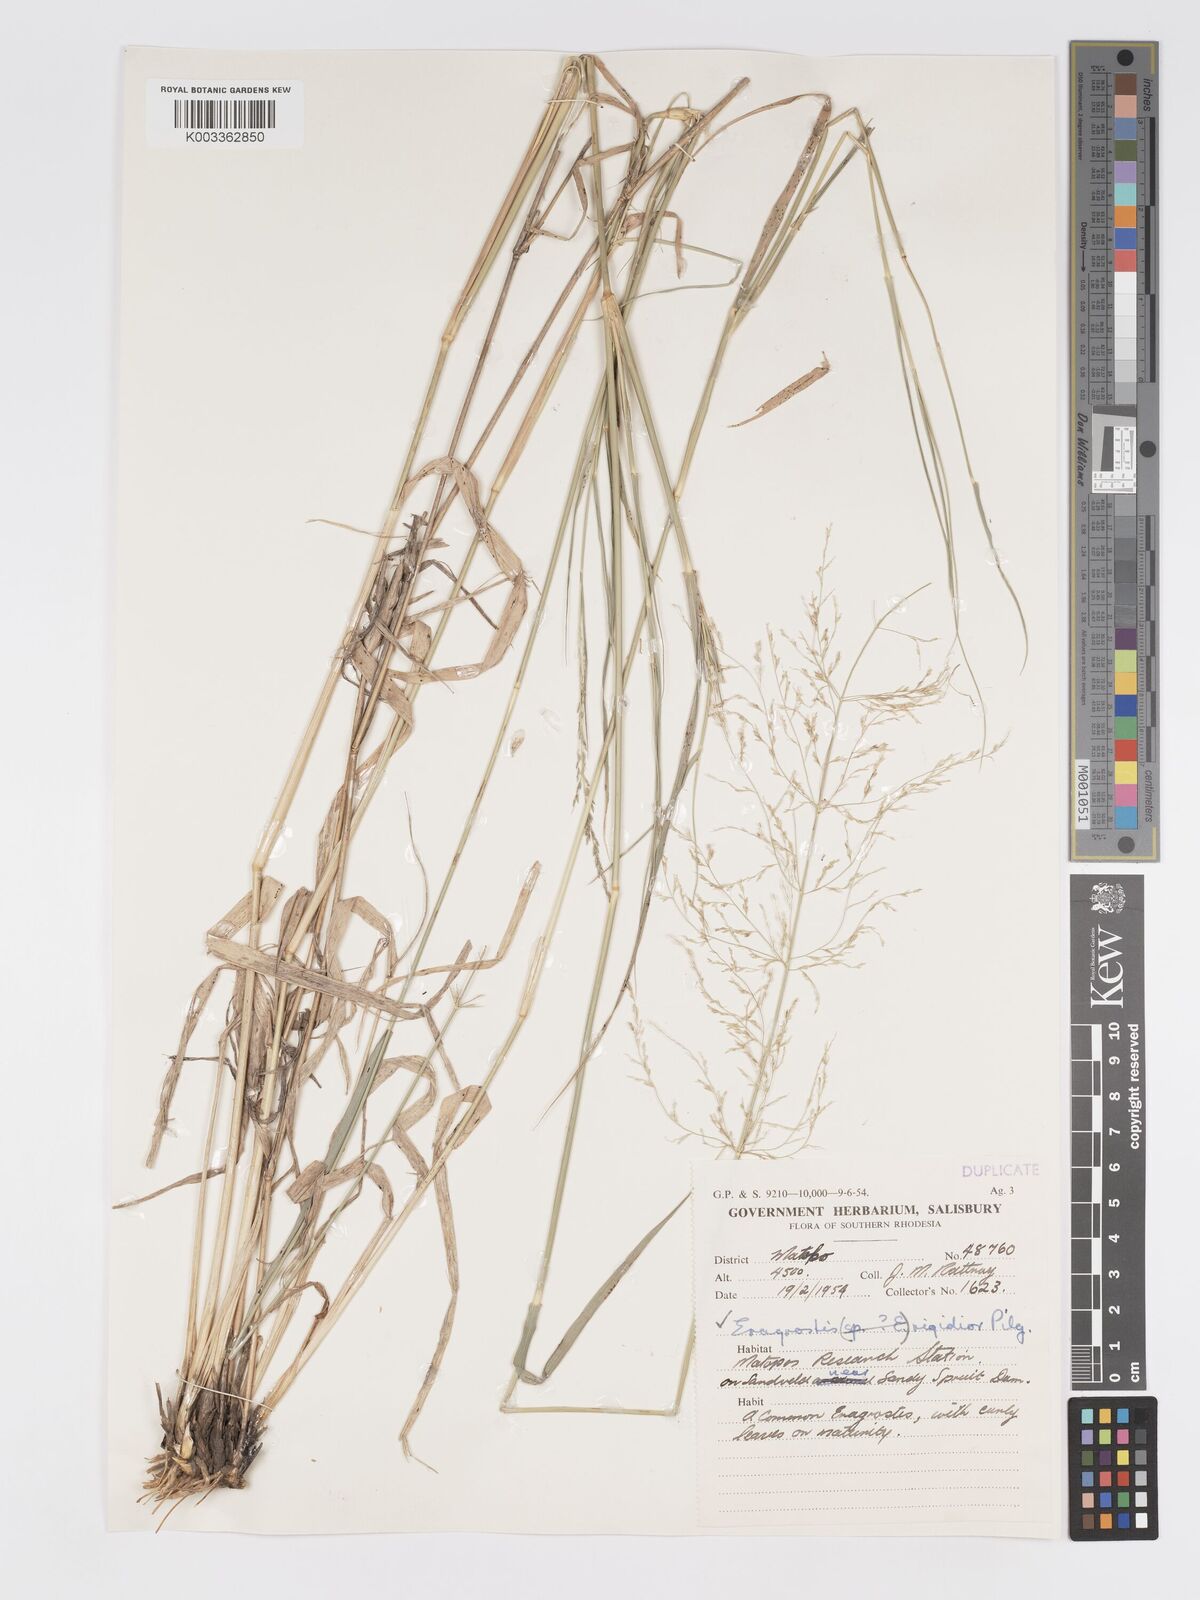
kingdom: Plantae
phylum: Tracheophyta
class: Liliopsida
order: Poales
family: Poaceae
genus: Eragrostis
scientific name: Eragrostis cylindriflora
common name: Cylinderflower lovegrass
